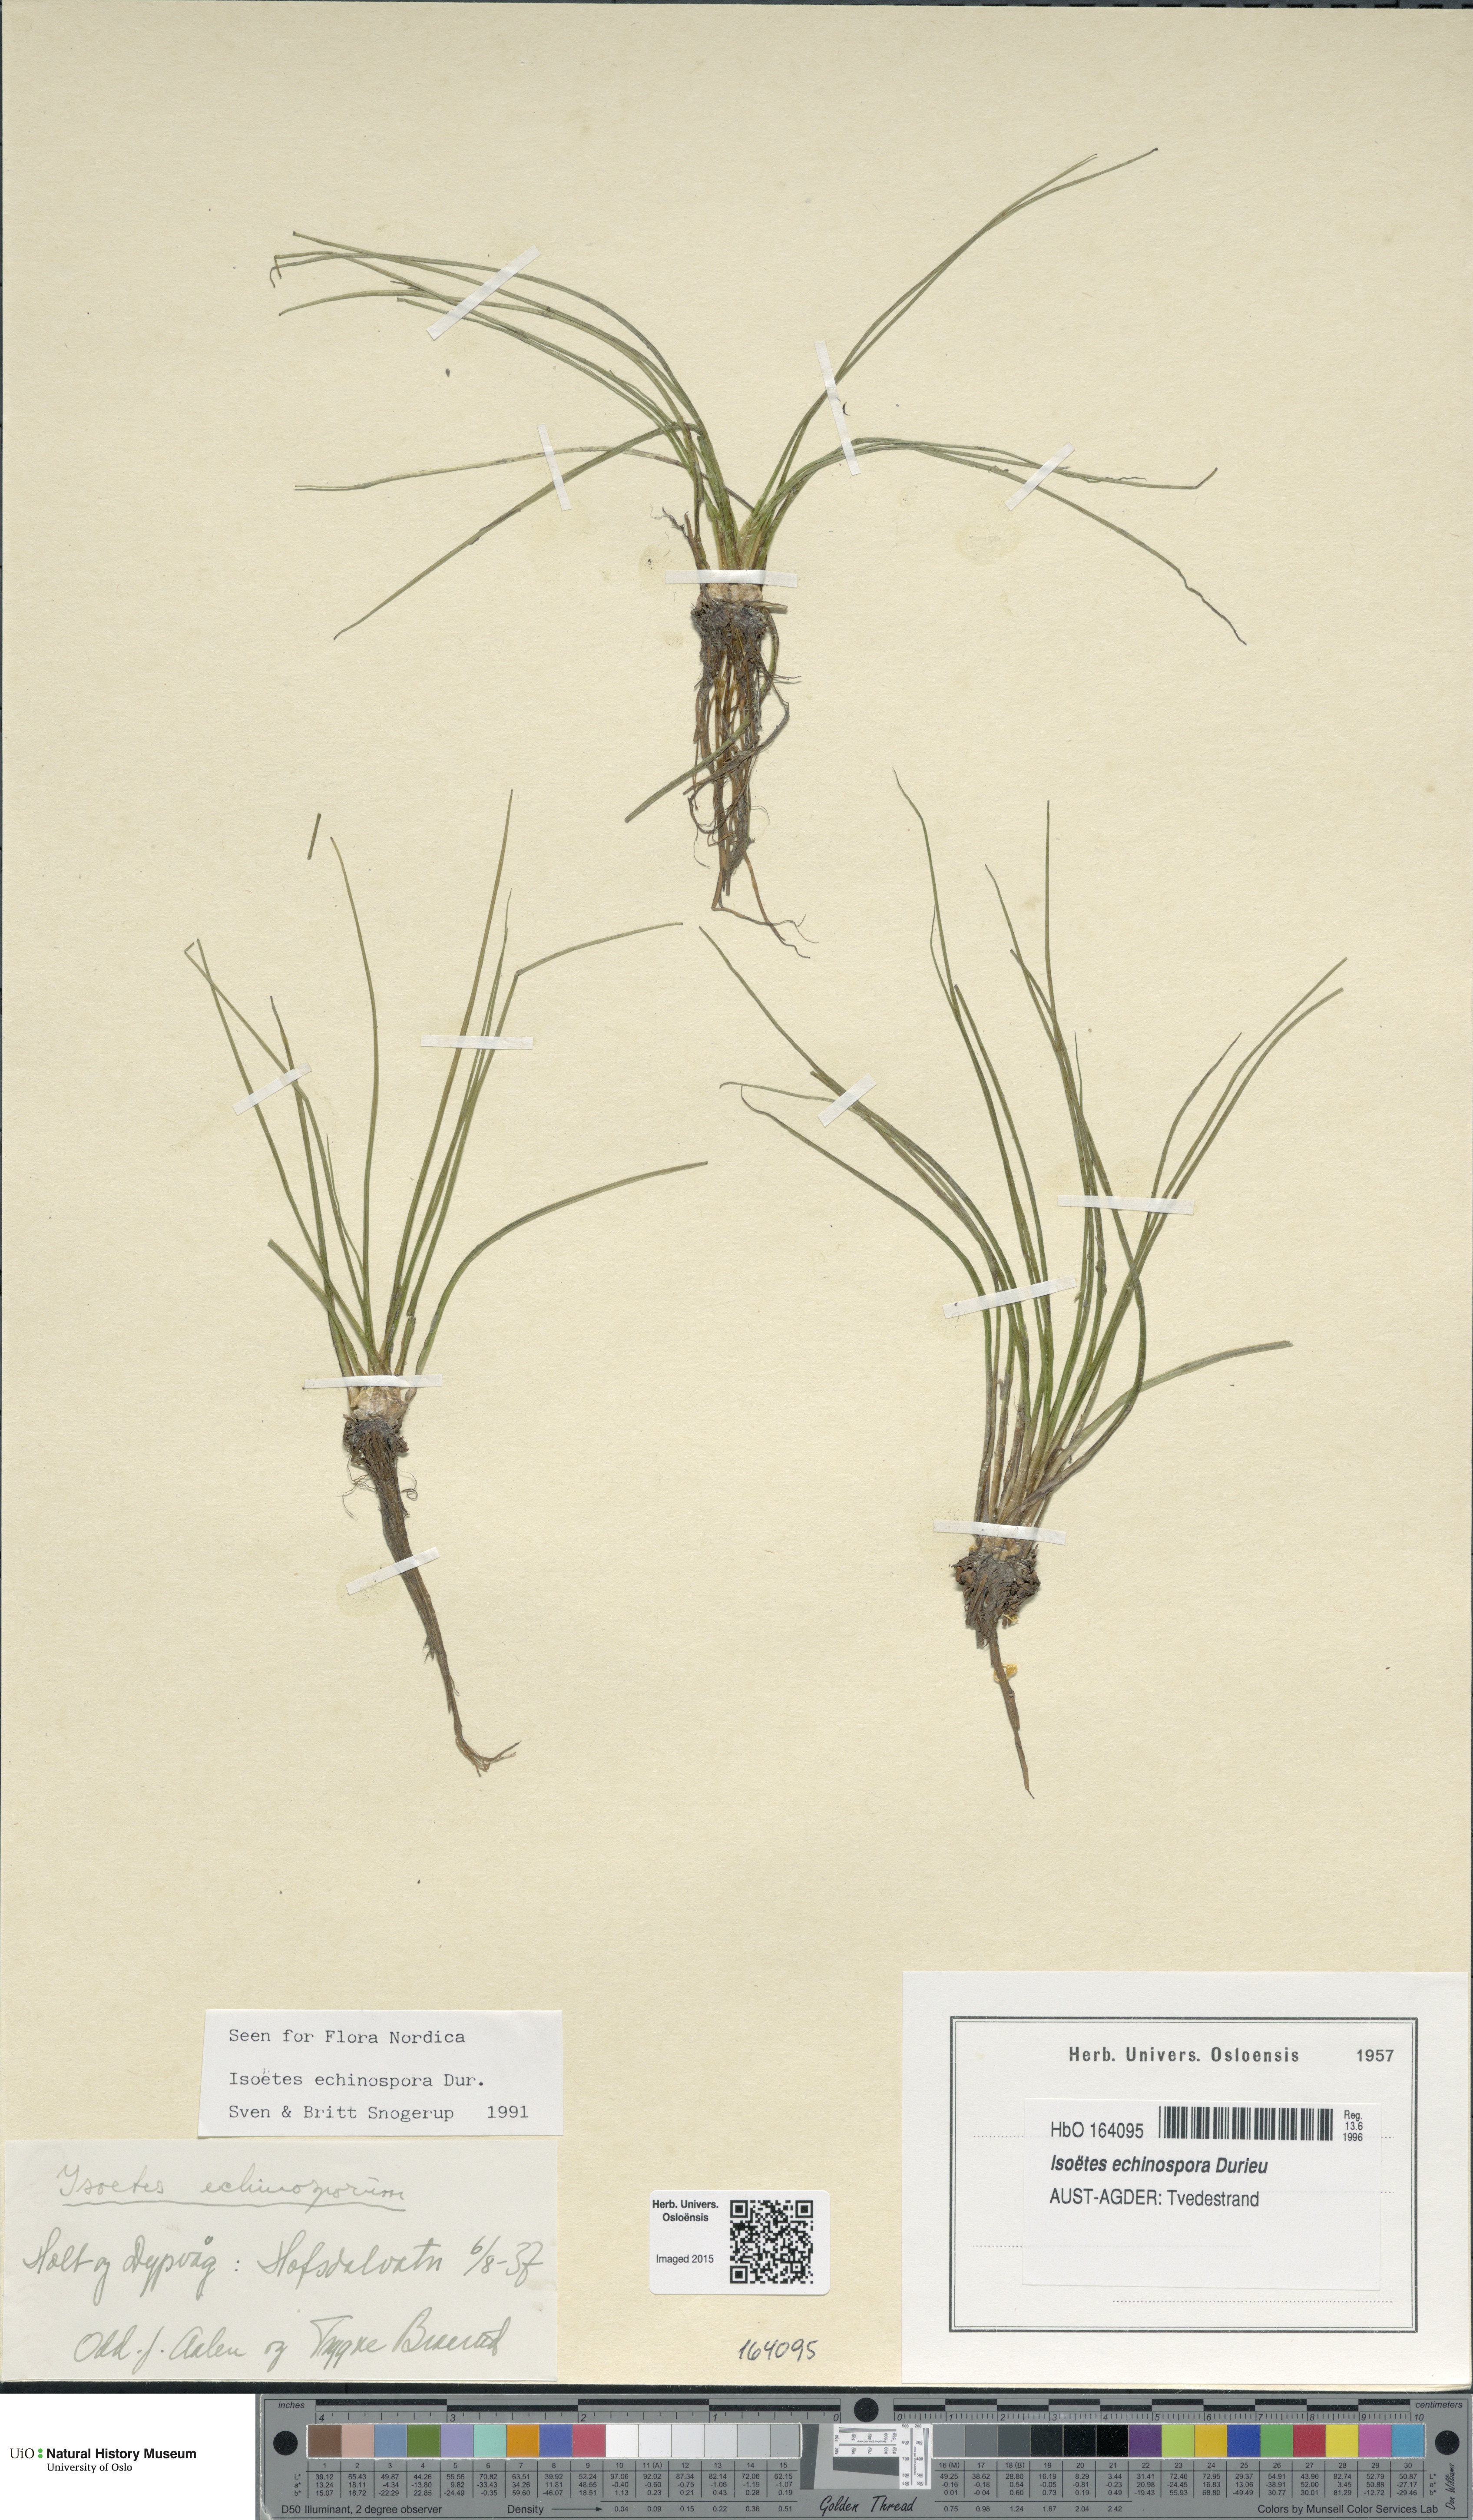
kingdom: Plantae
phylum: Tracheophyta
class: Lycopodiopsida
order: Isoetales
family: Isoetaceae
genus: Isoetes
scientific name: Isoetes echinospora
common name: Spring quillwort
